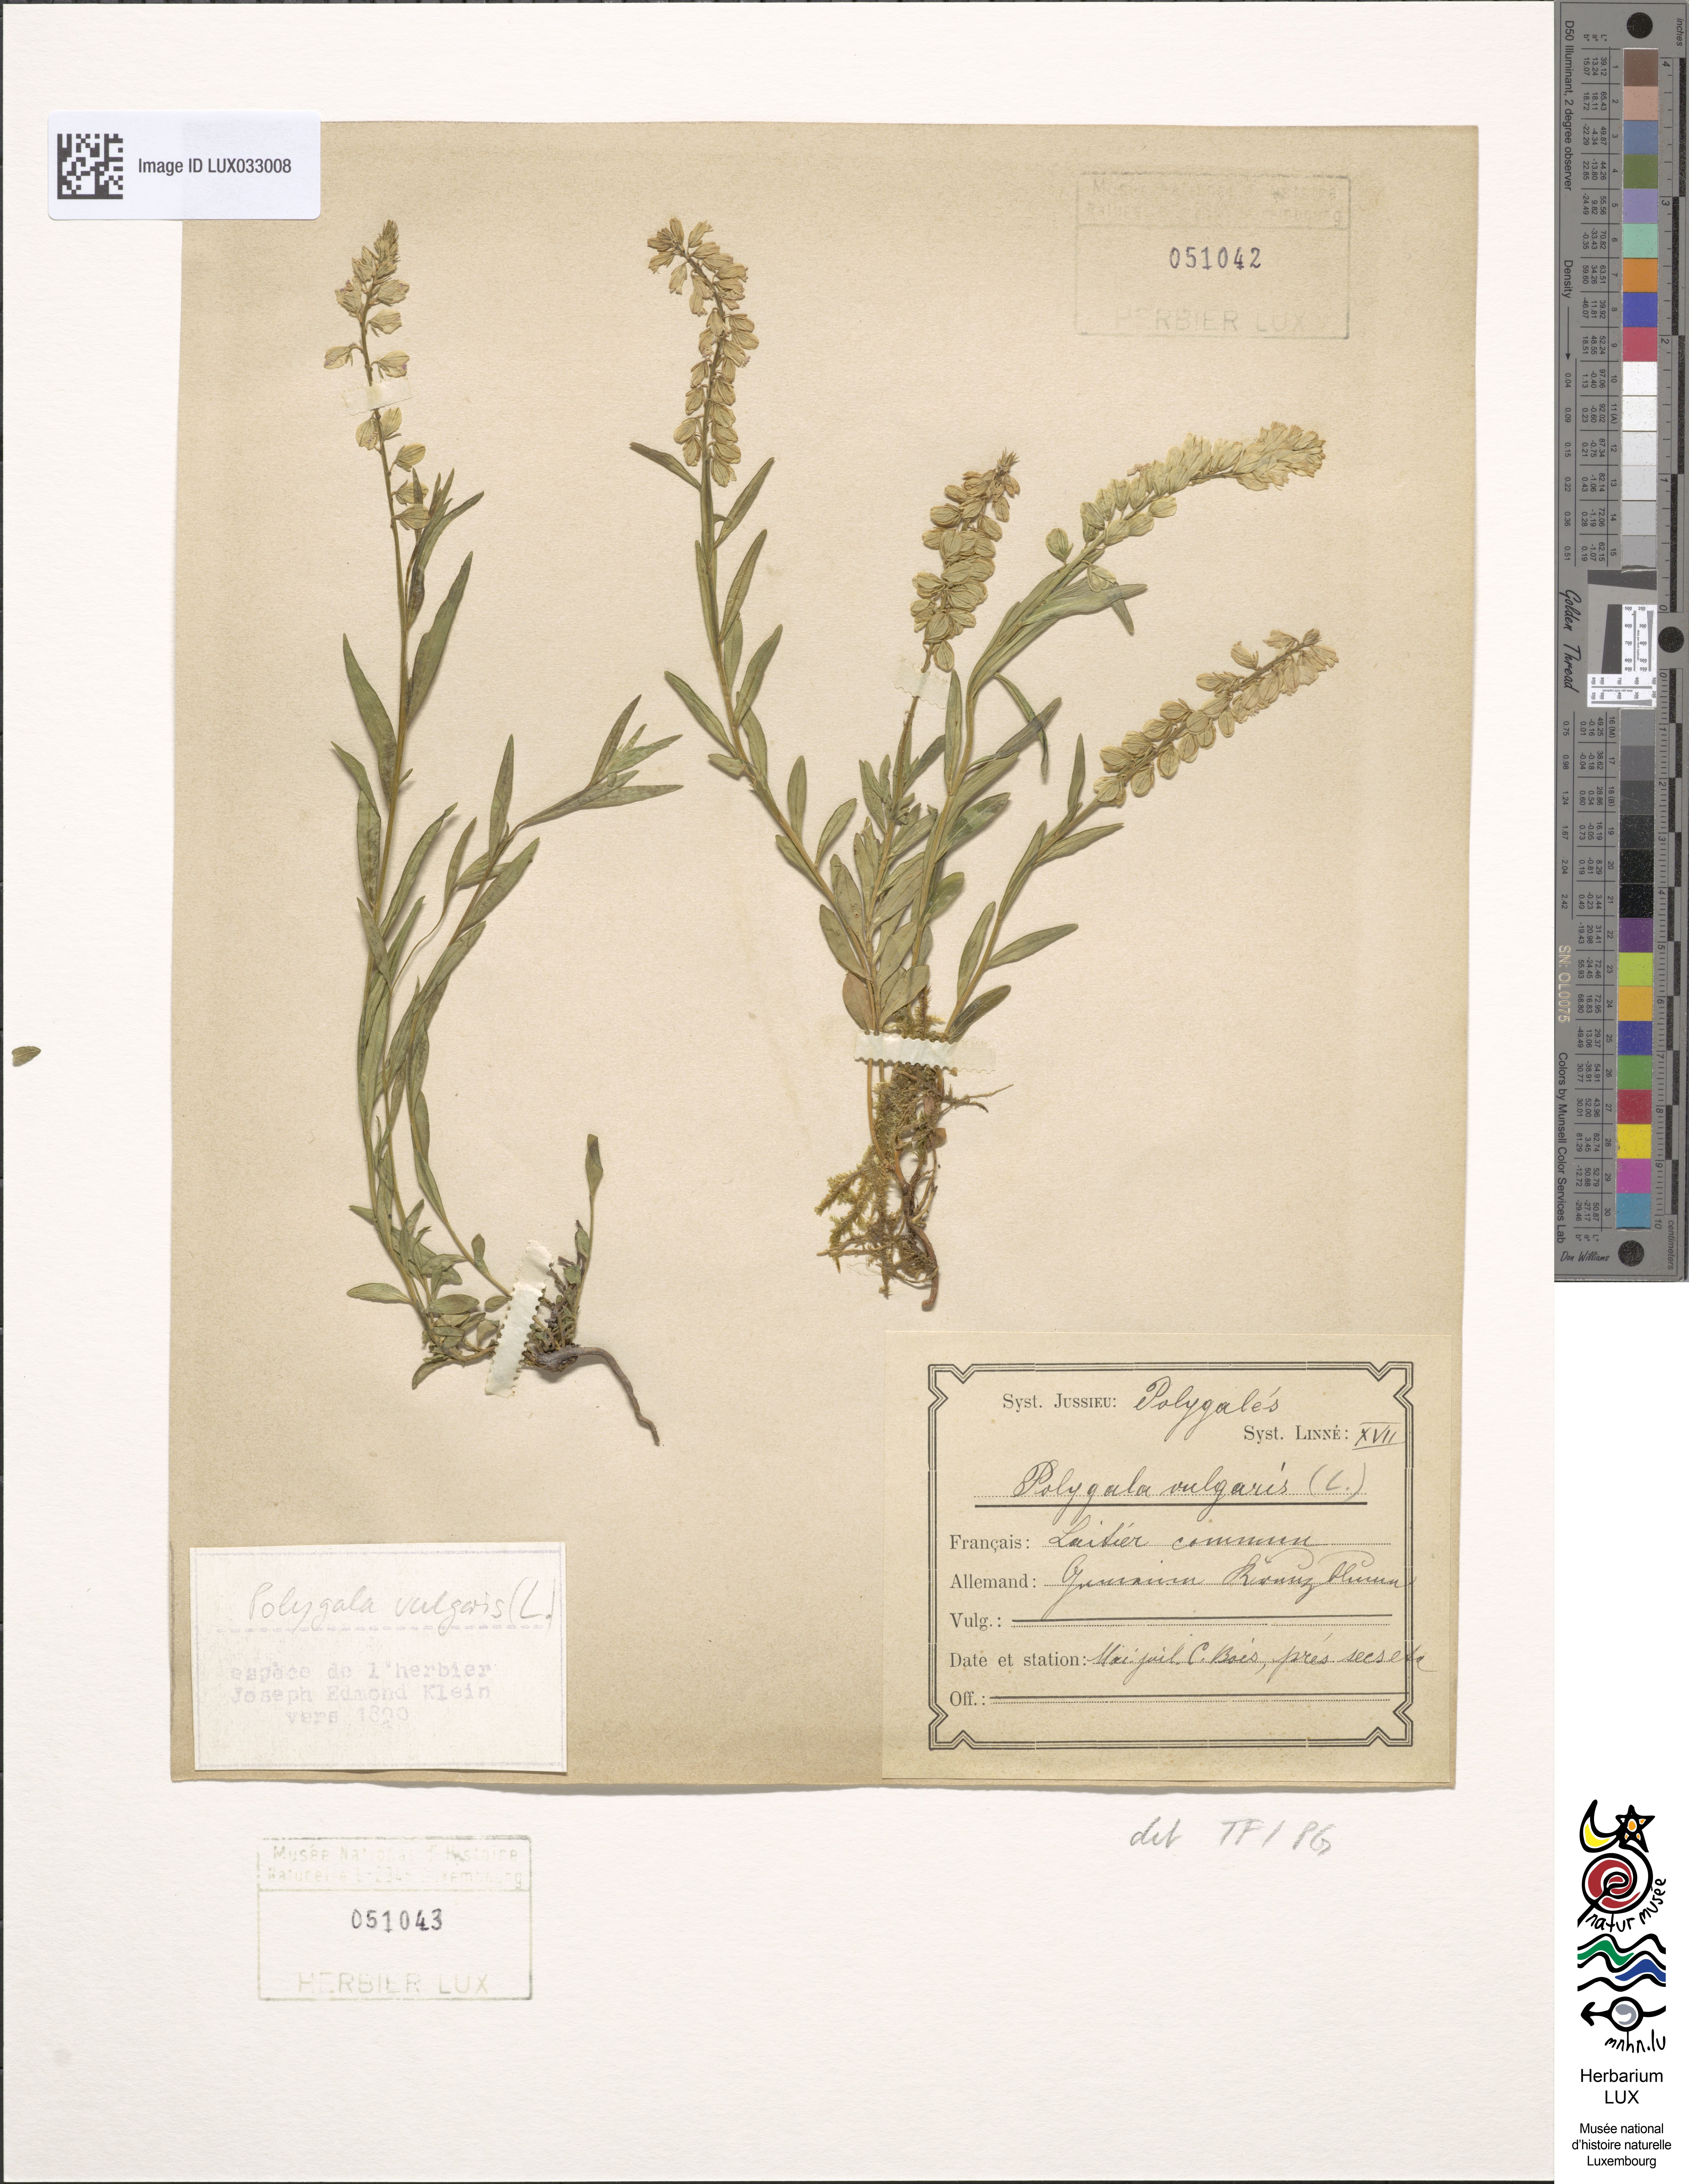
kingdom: Plantae
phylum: Tracheophyta
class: Magnoliopsida
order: Fabales
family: Polygalaceae
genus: Polygala
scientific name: Polygala vulgaris
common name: Common milkwort
